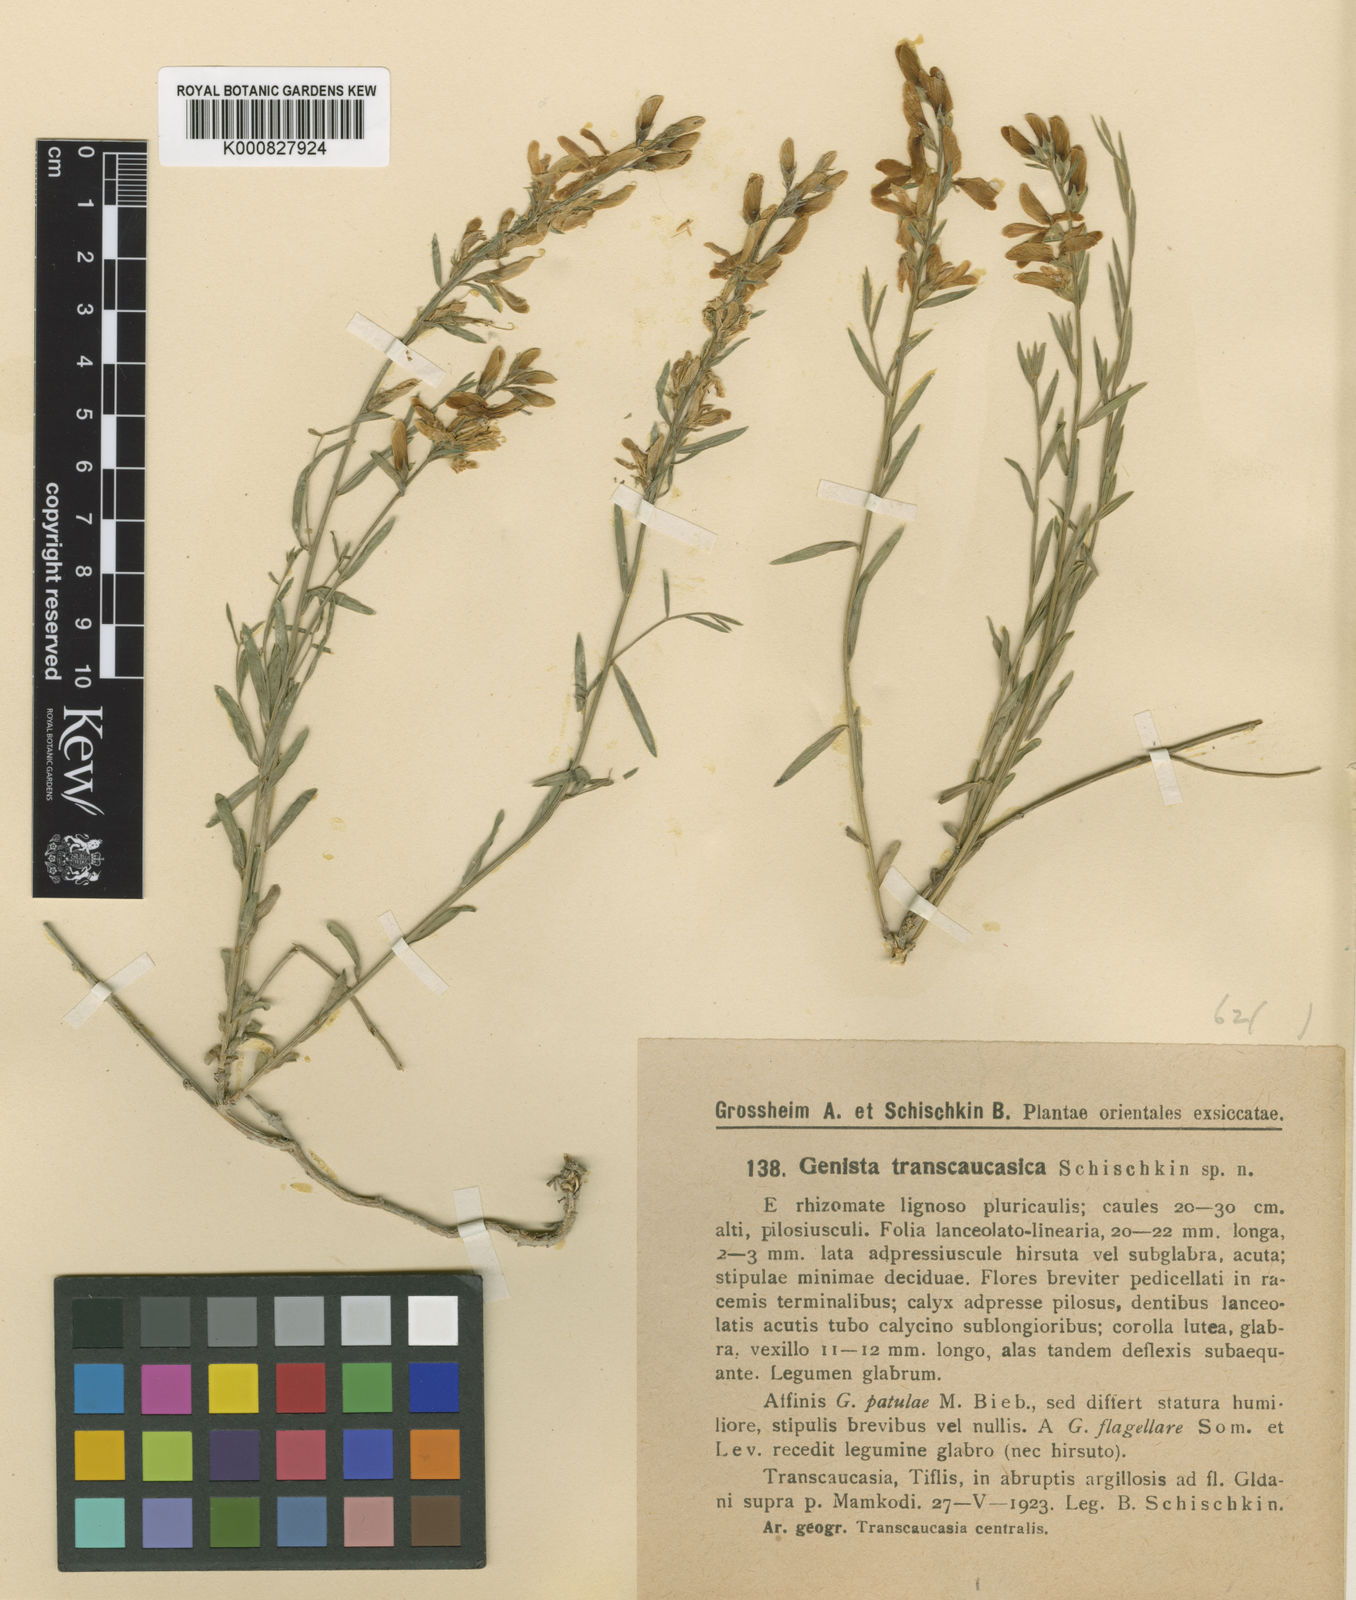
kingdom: Plantae
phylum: Tracheophyta
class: Magnoliopsida
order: Fabales
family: Fabaceae
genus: Genista
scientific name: Genista dracunculoides
